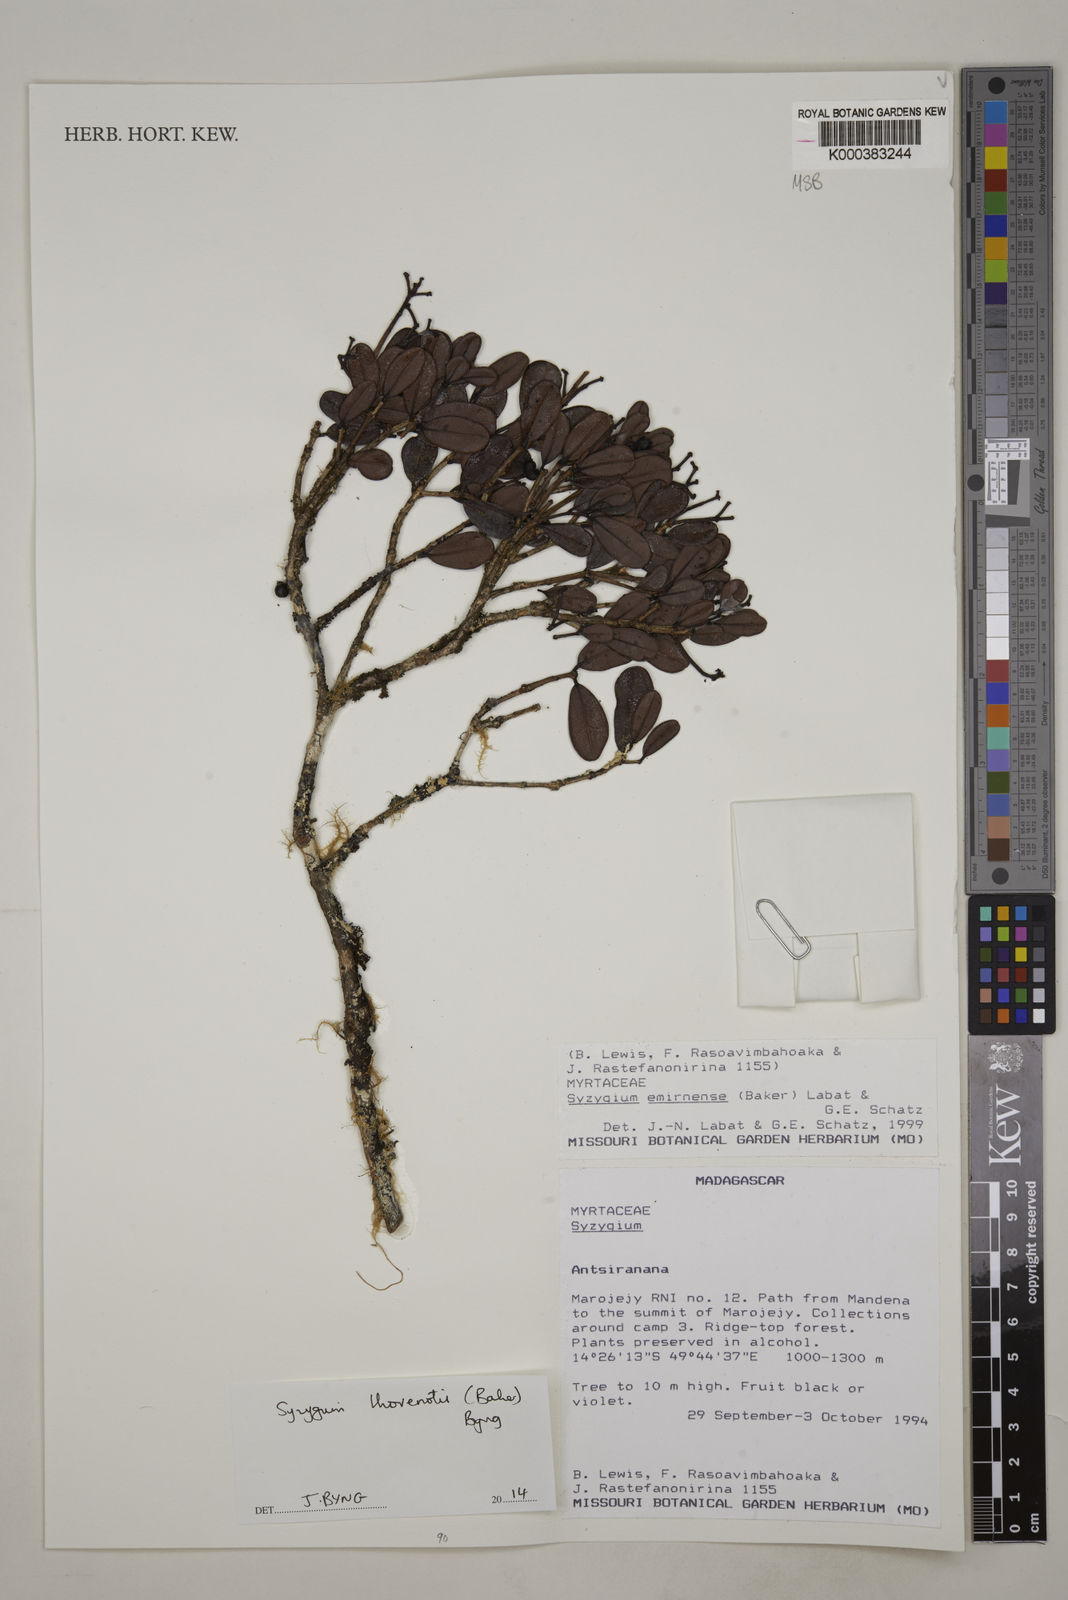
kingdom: Plantae
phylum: Tracheophyta
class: Magnoliopsida
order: Myrtales
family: Myrtaceae
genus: Syzygium
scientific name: Syzygium emirnense
